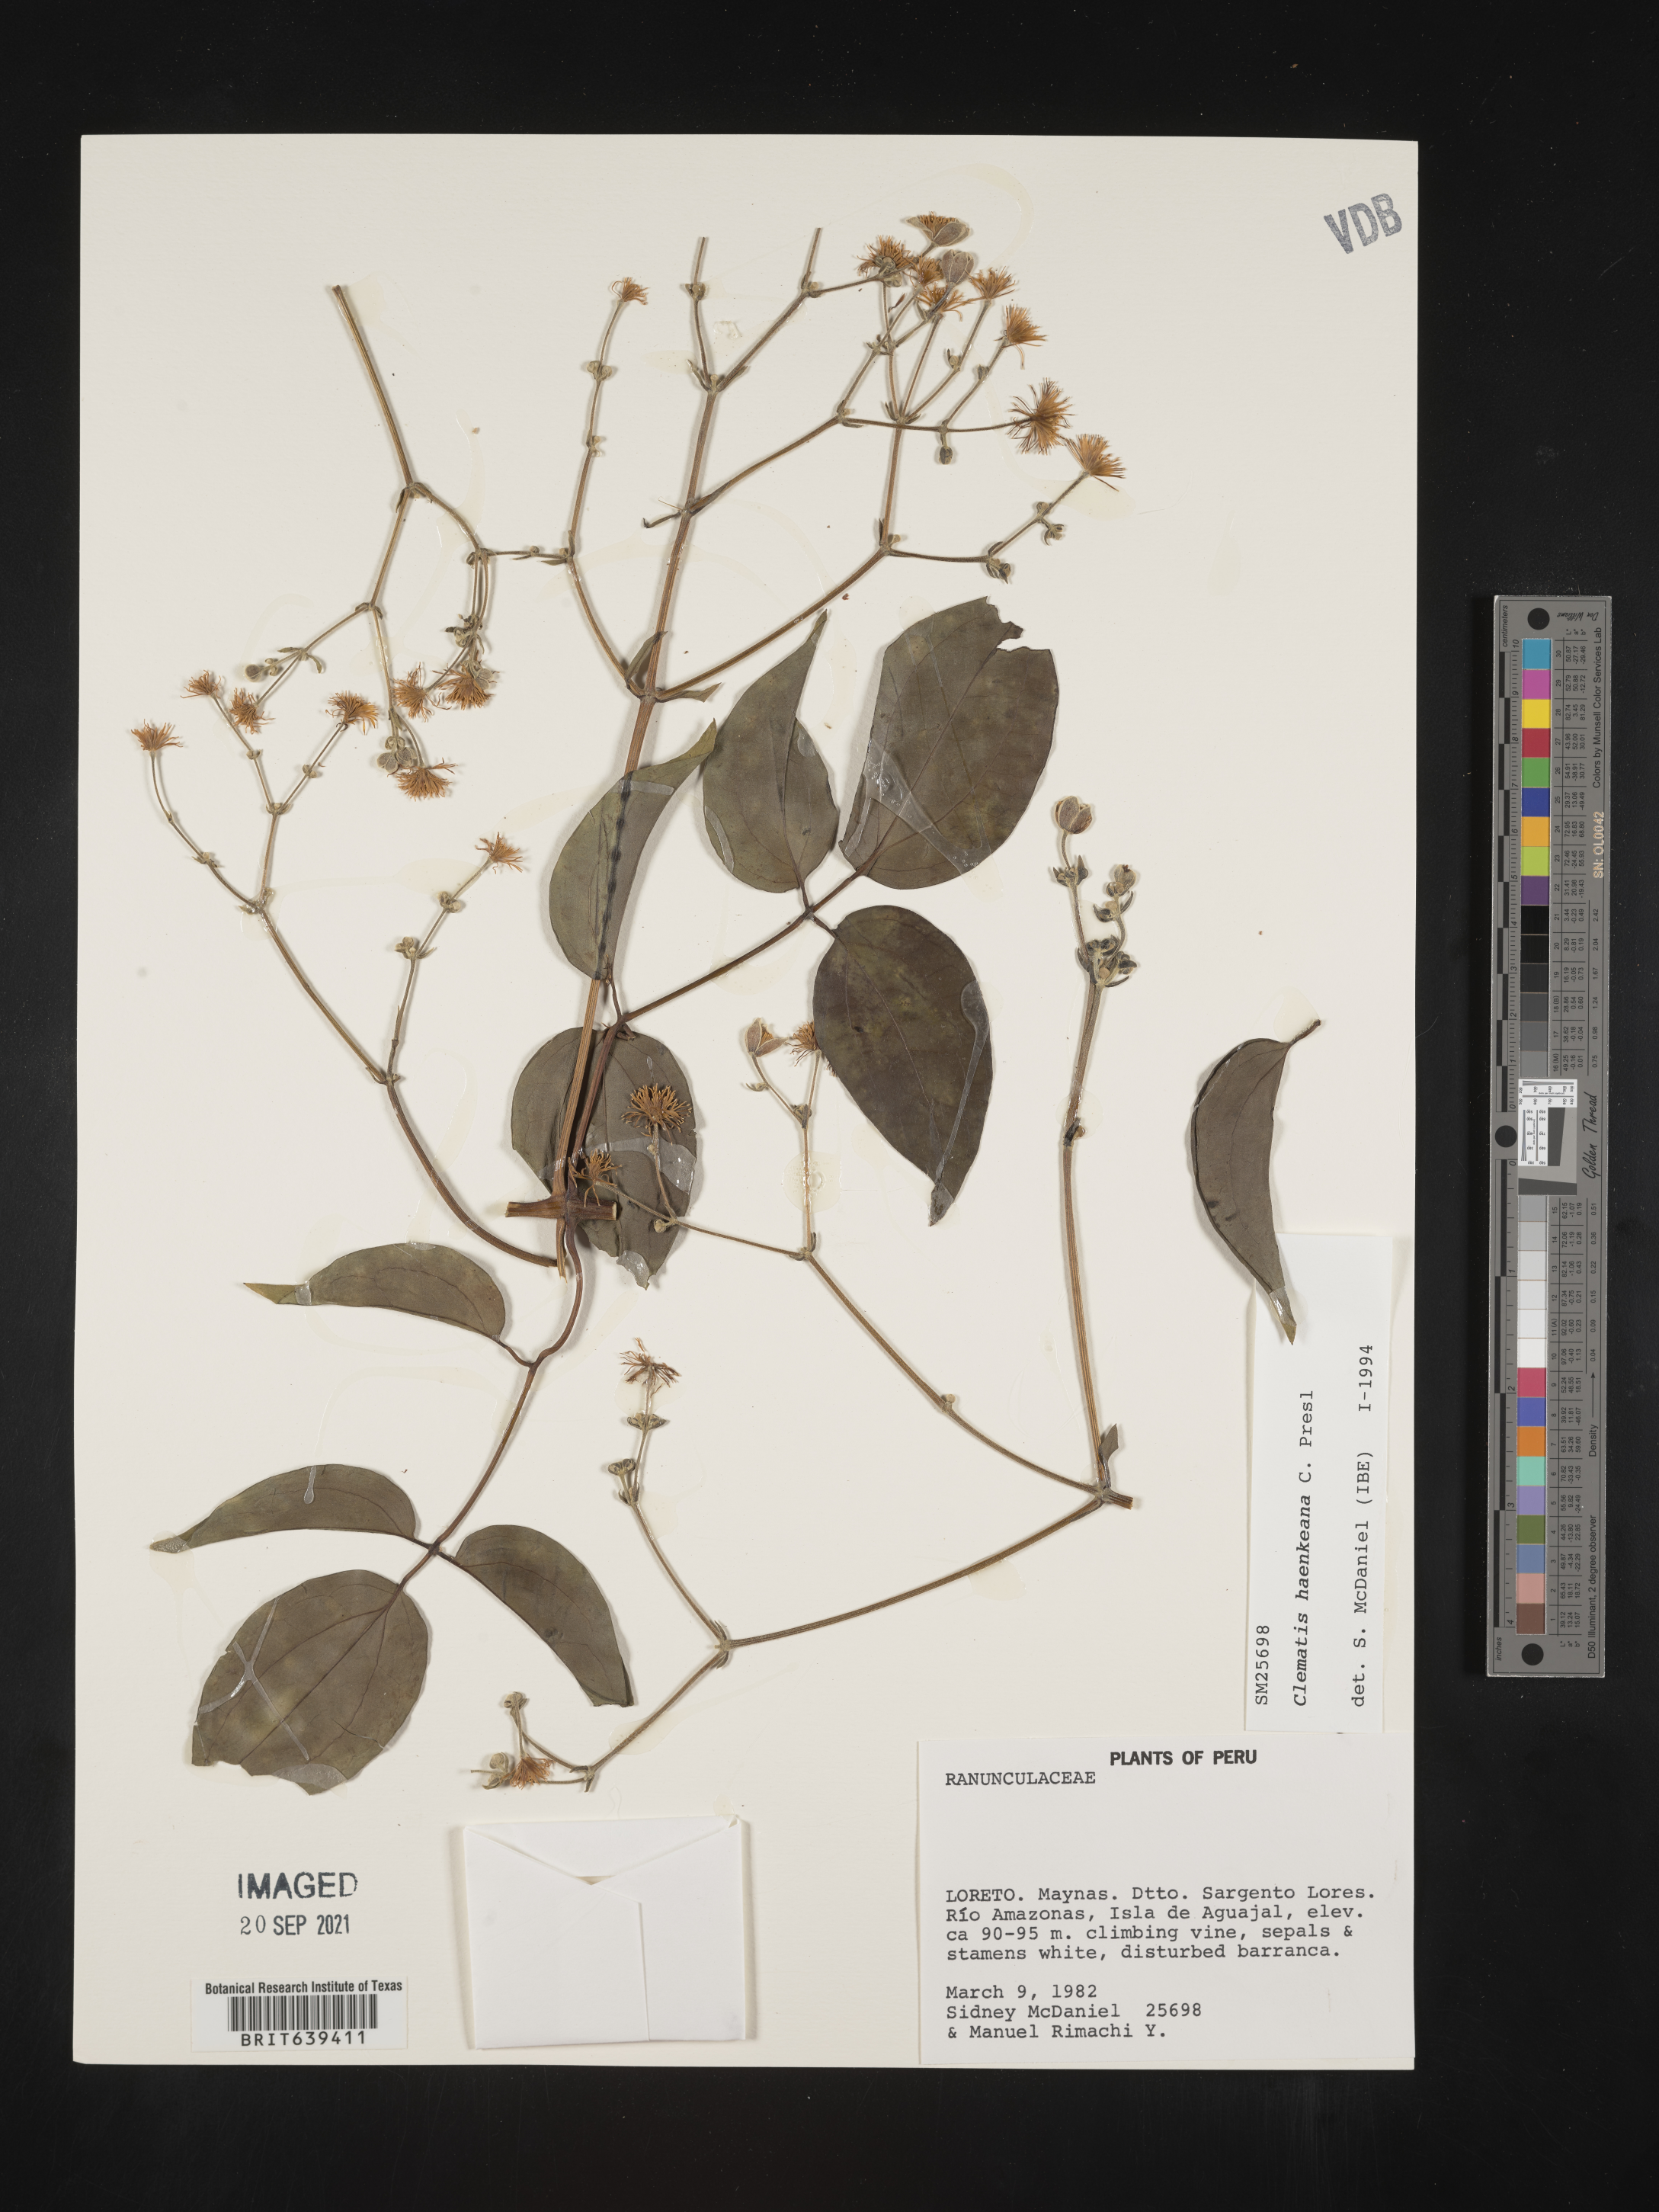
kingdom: Plantae
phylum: Tracheophyta
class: Magnoliopsida
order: Ranunculales
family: Ranunculaceae
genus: Clematis
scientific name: Clematis
